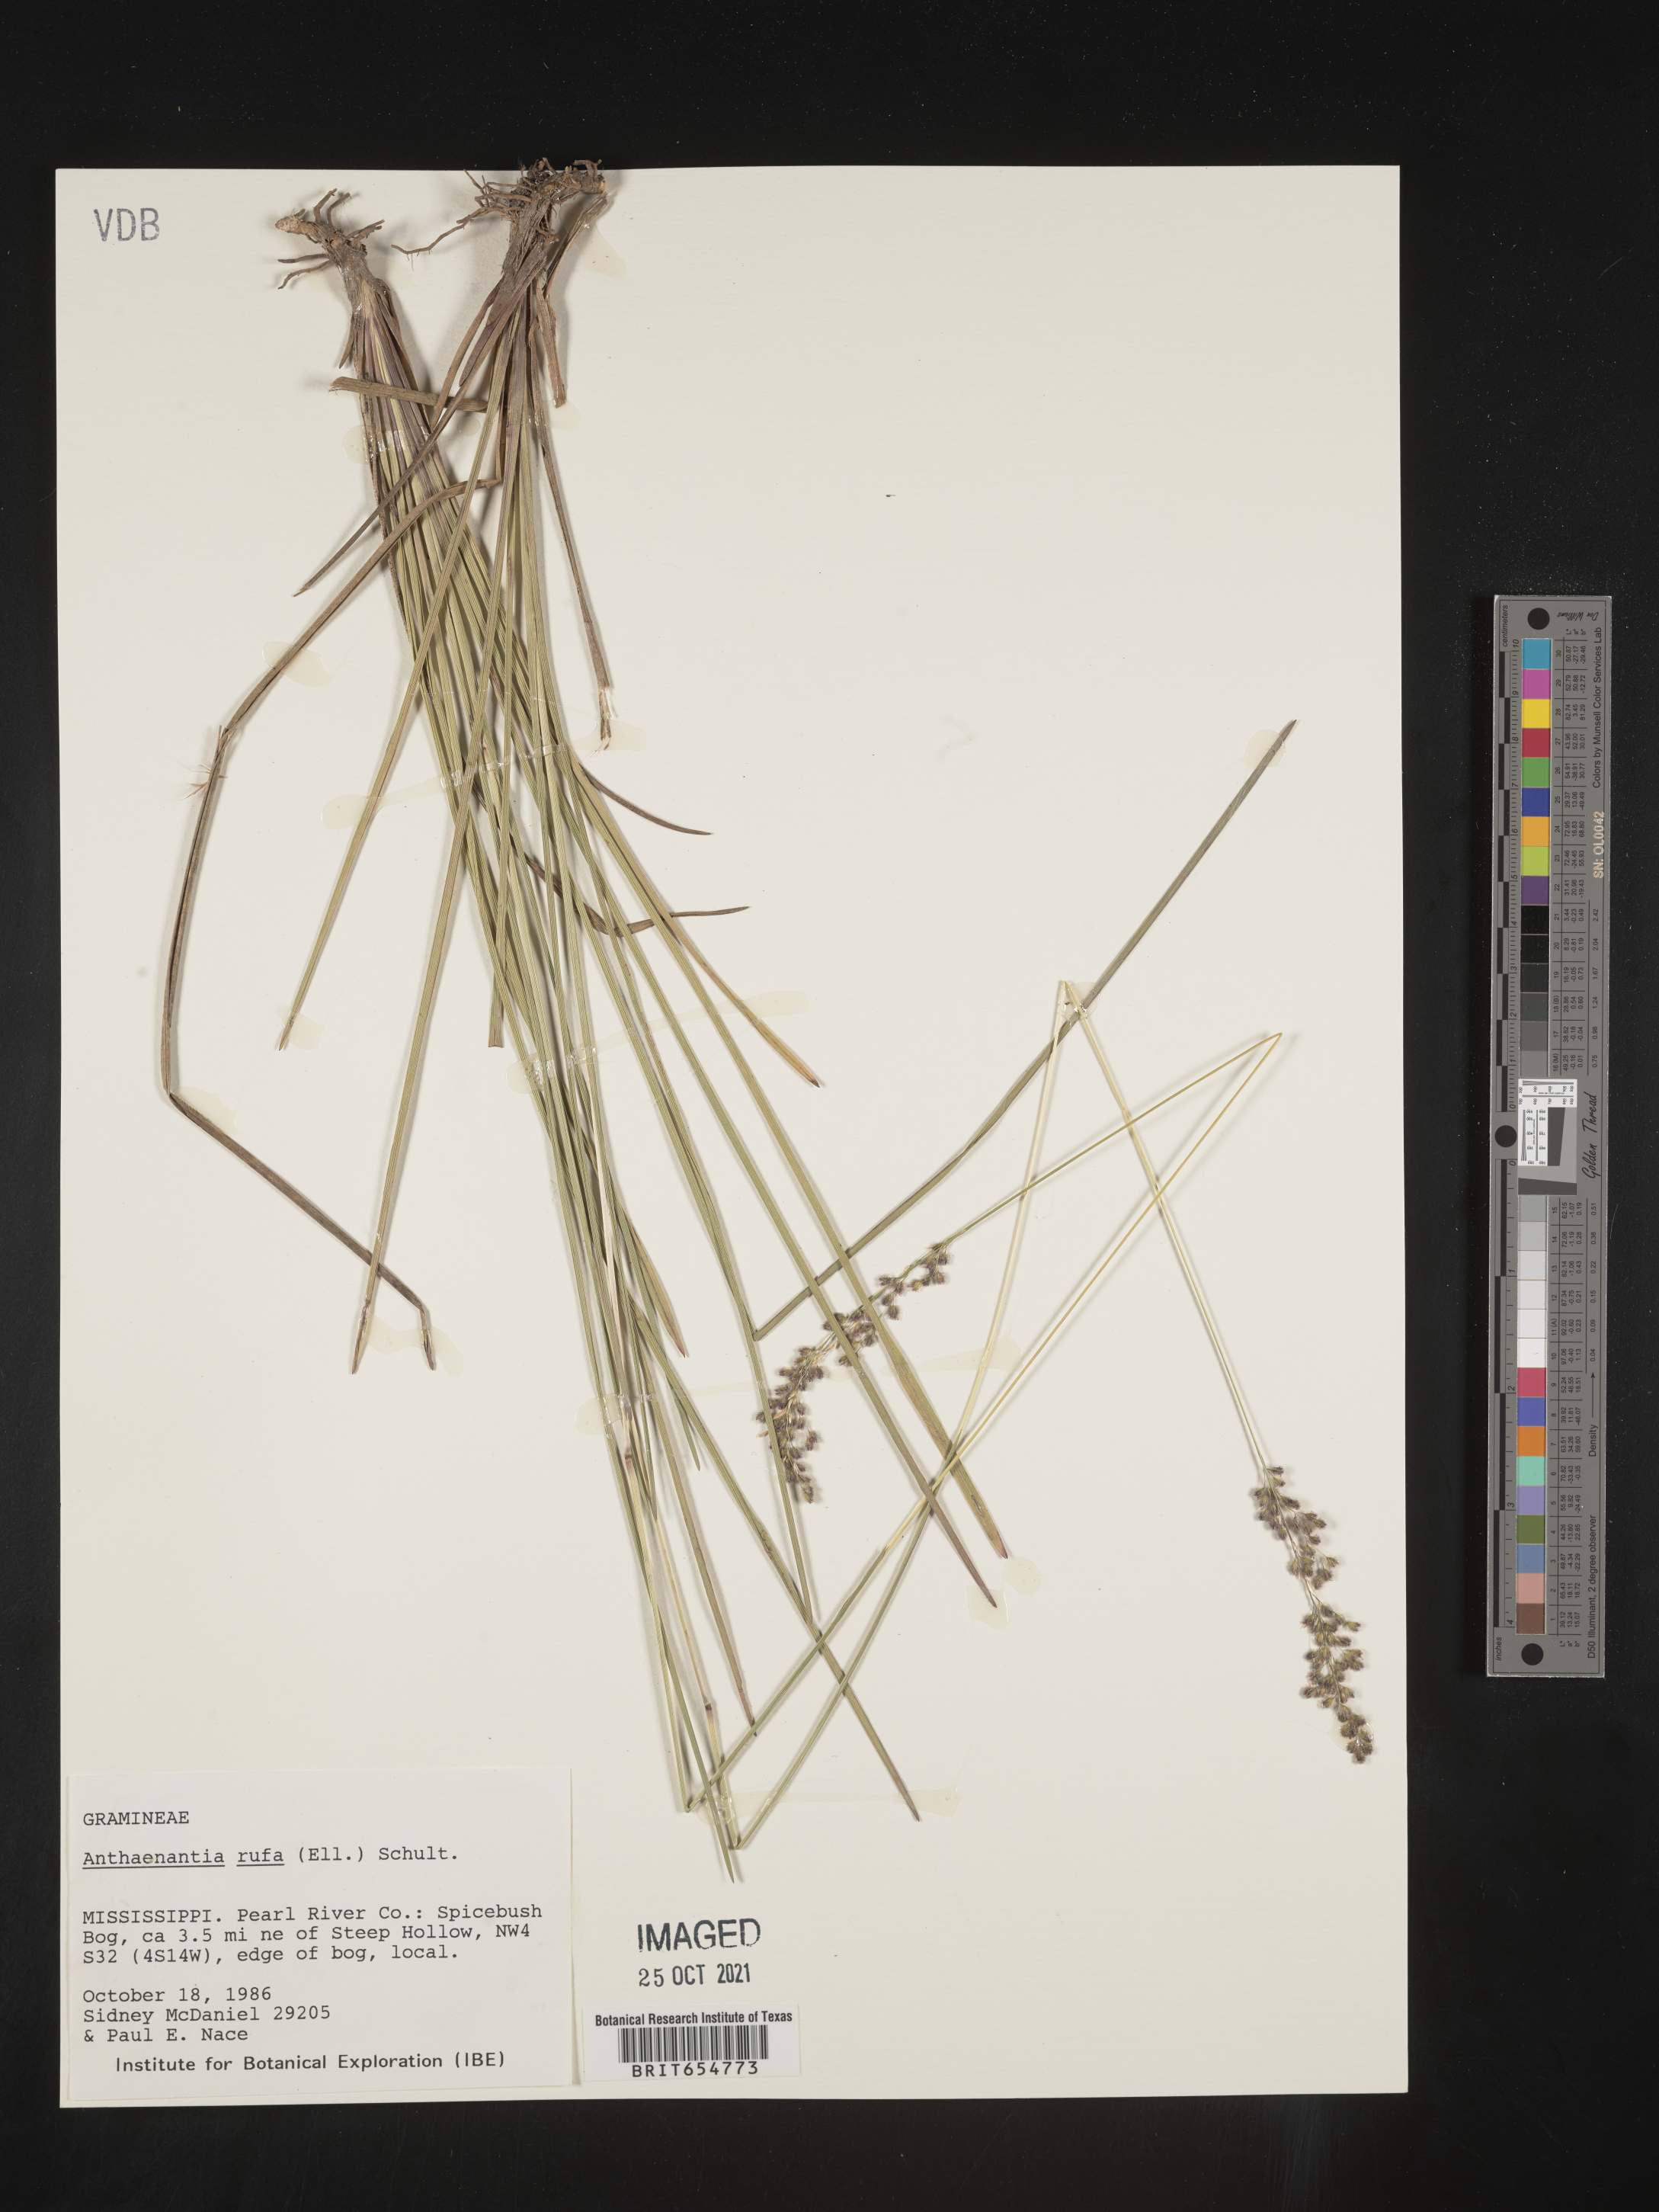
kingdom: Plantae
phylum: Tracheophyta
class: Liliopsida
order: Poales
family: Poaceae
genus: Andropogon
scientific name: Andropogon
